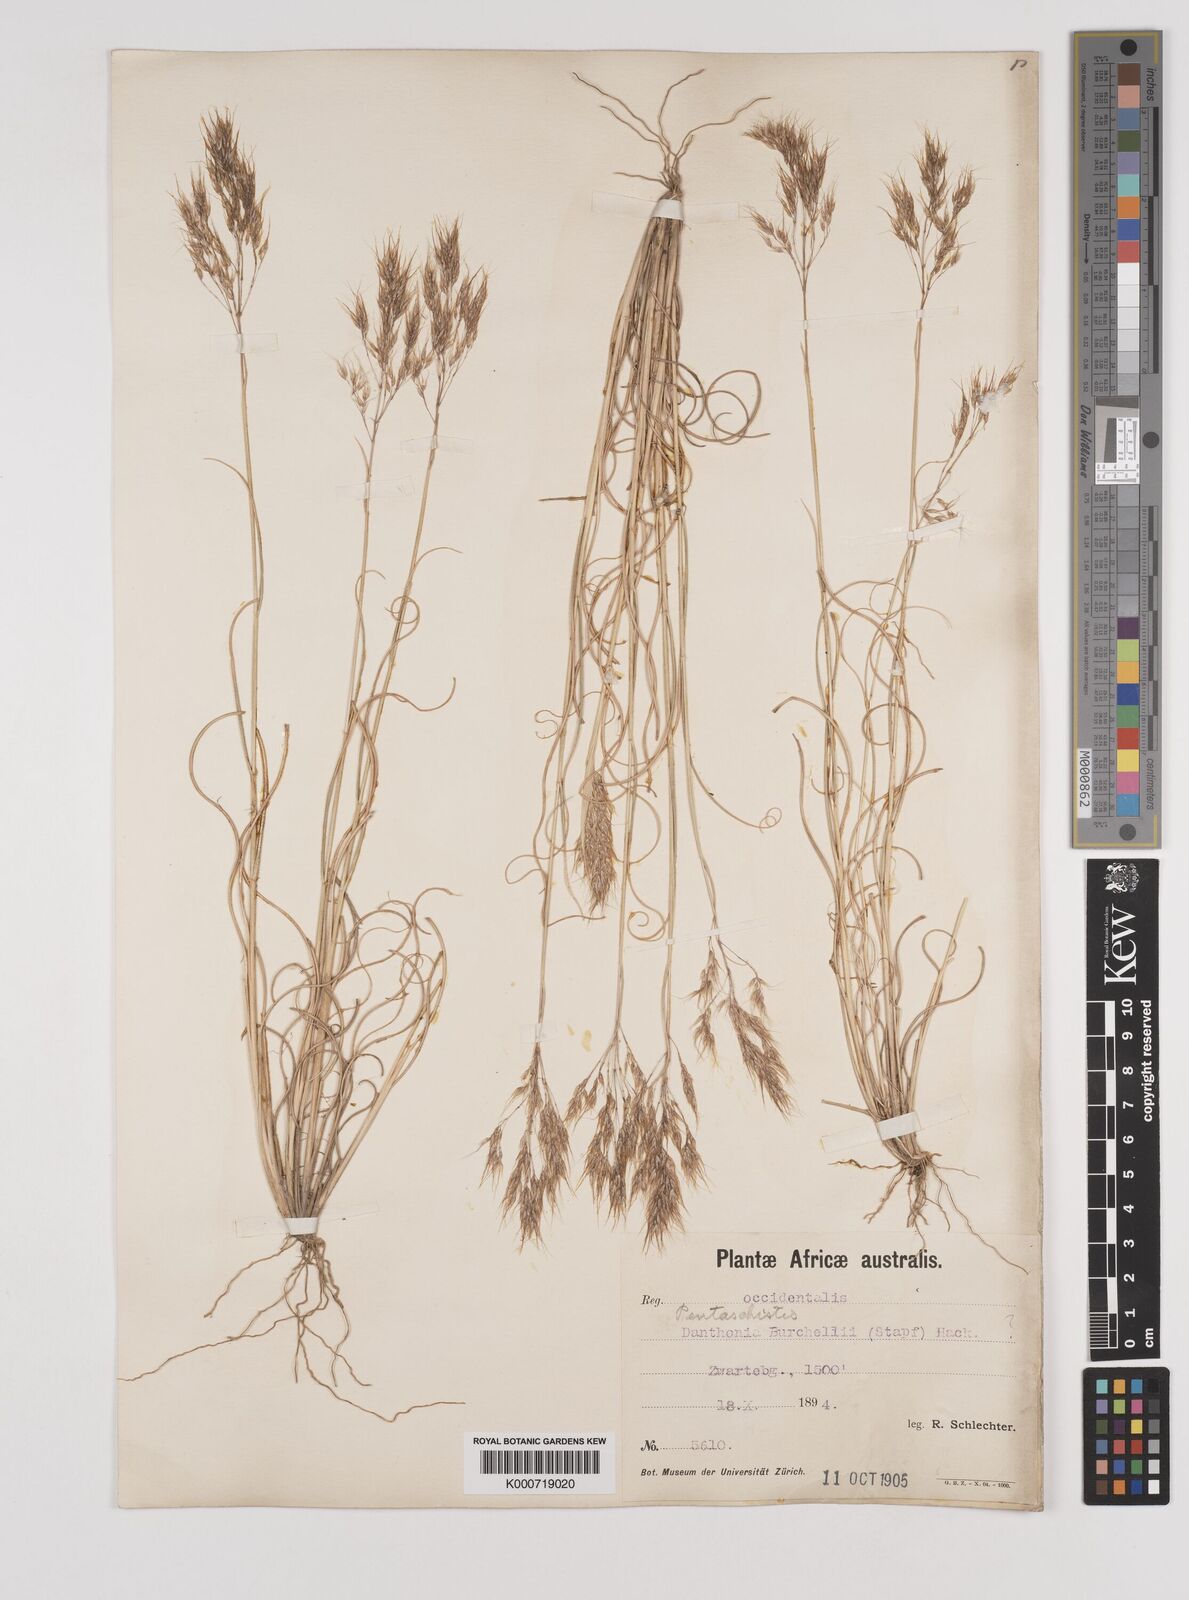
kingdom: Plantae
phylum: Tracheophyta
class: Liliopsida
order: Poales
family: Poaceae
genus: Pentameris
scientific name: Pentameris pallida
